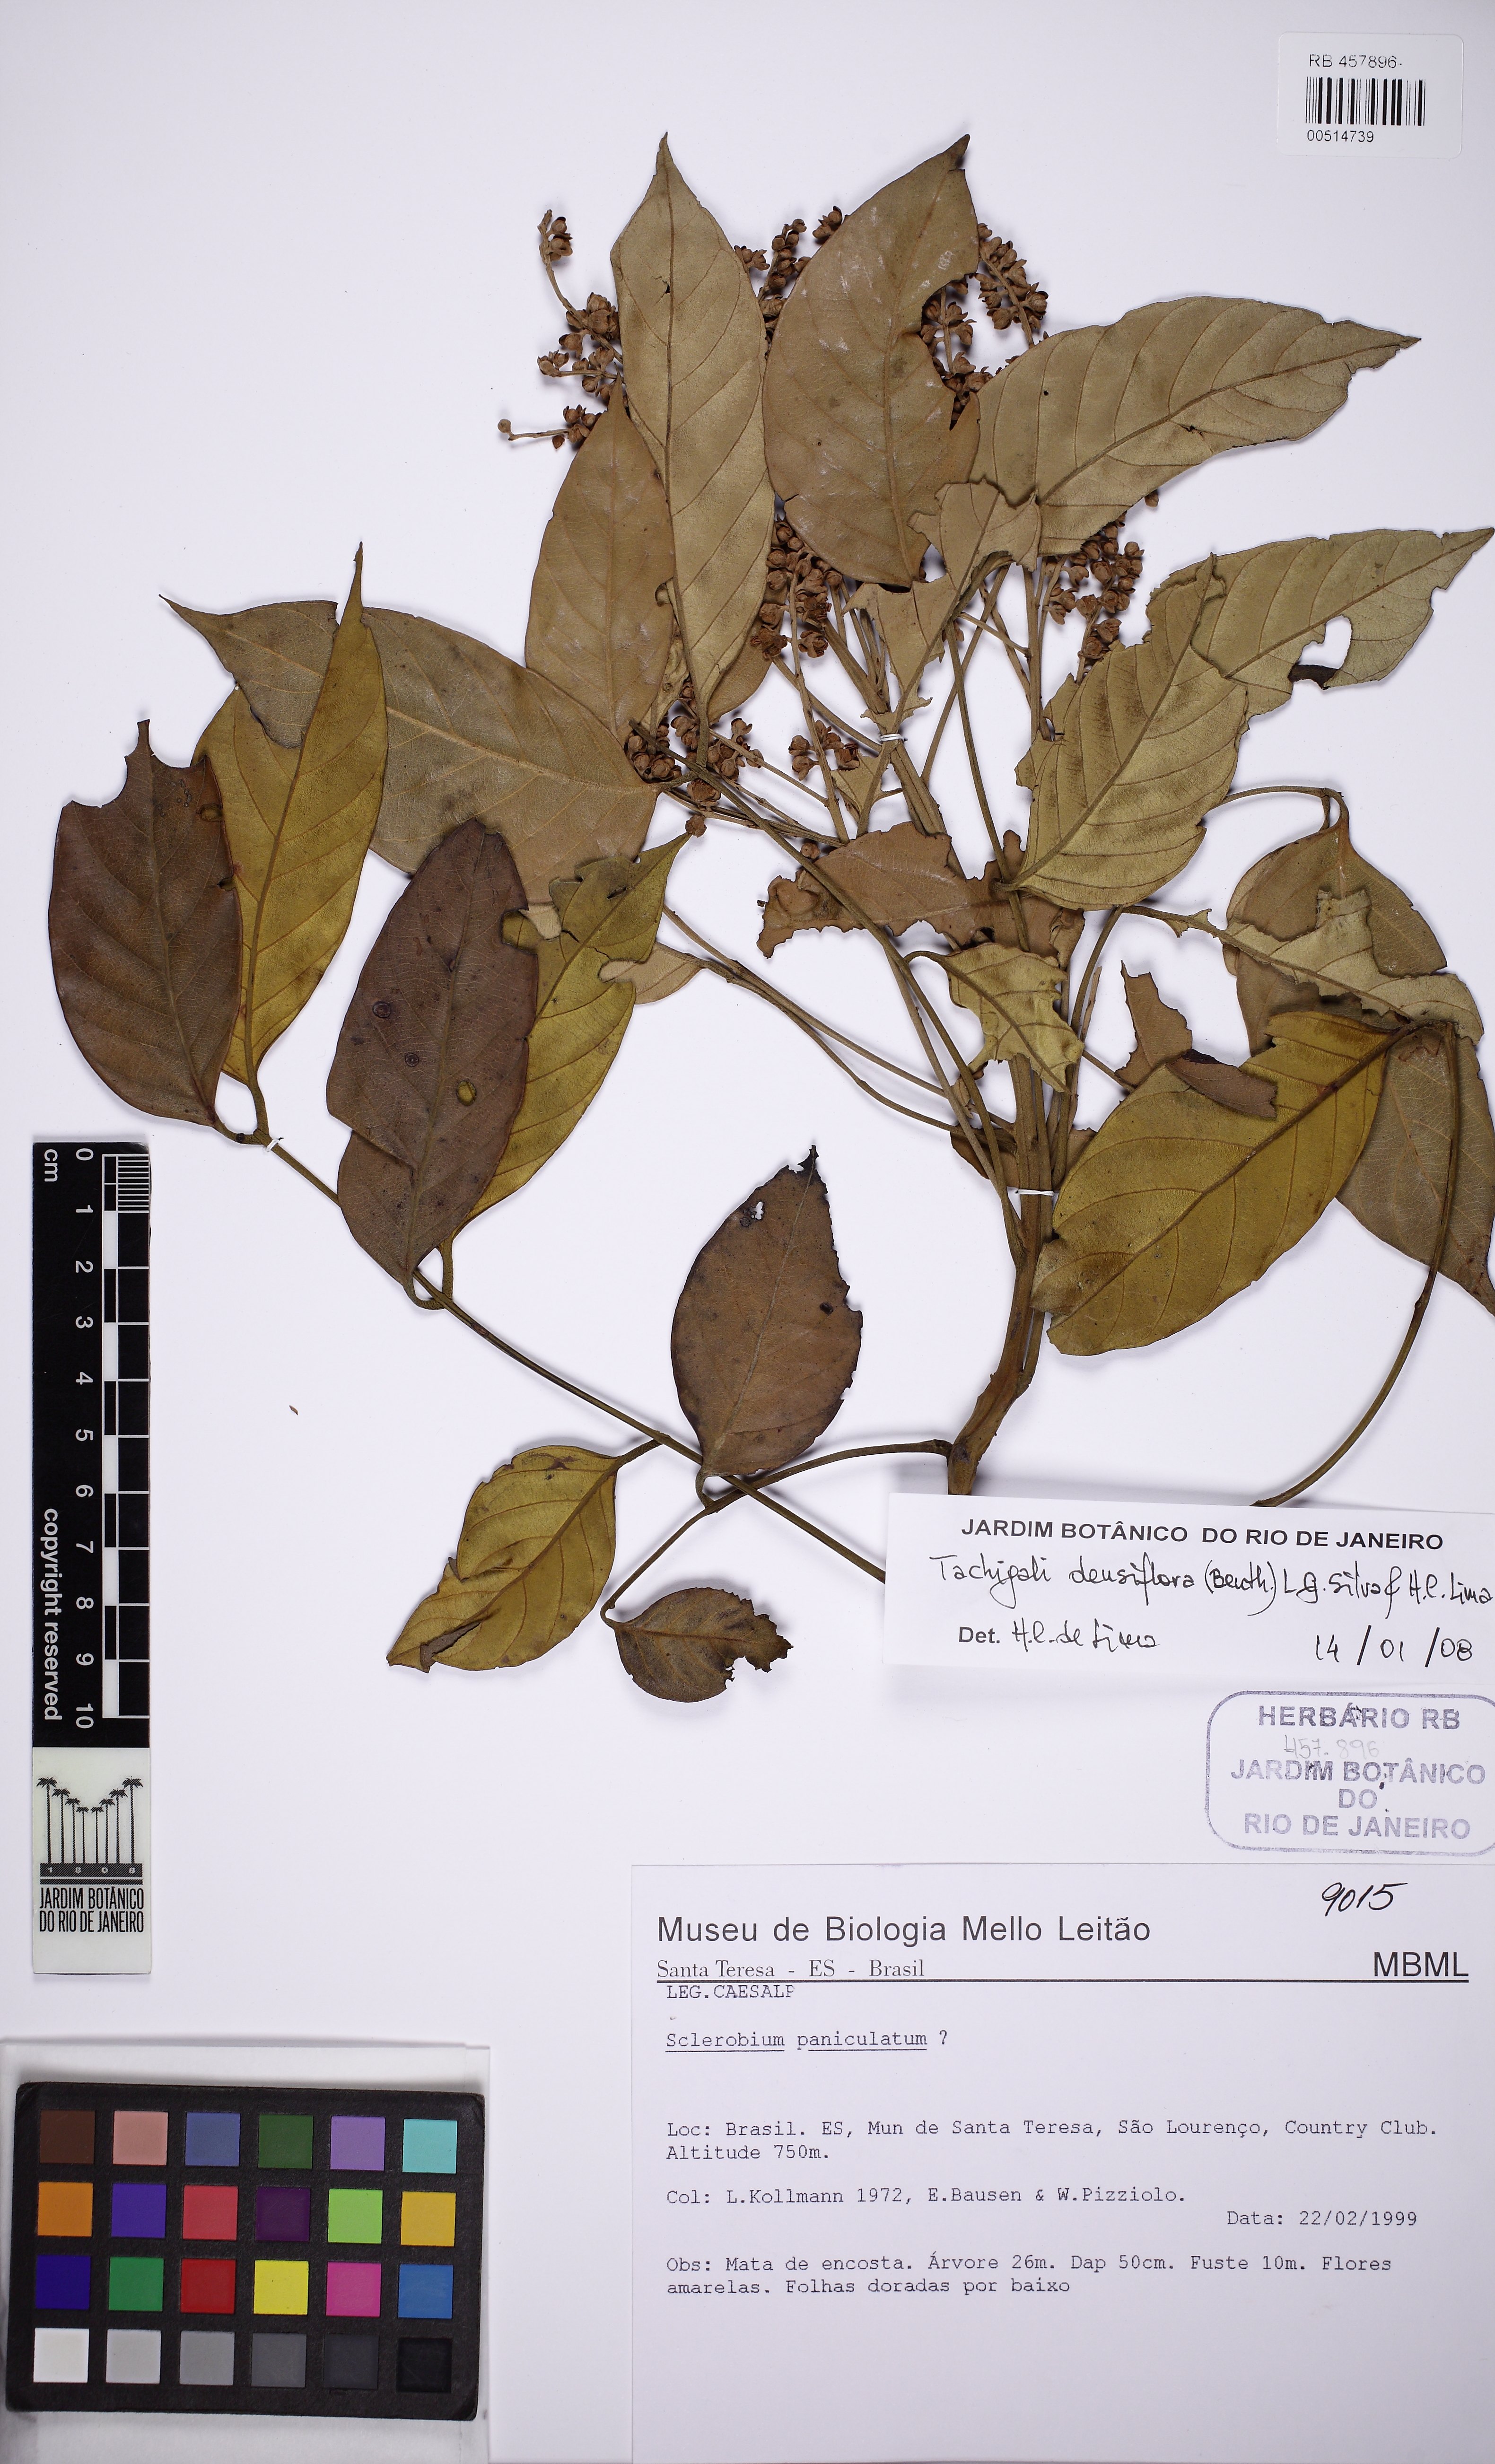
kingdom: Plantae
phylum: Tracheophyta
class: Magnoliopsida
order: Fabales
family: Fabaceae
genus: Tachigali
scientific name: Tachigali densiflora
